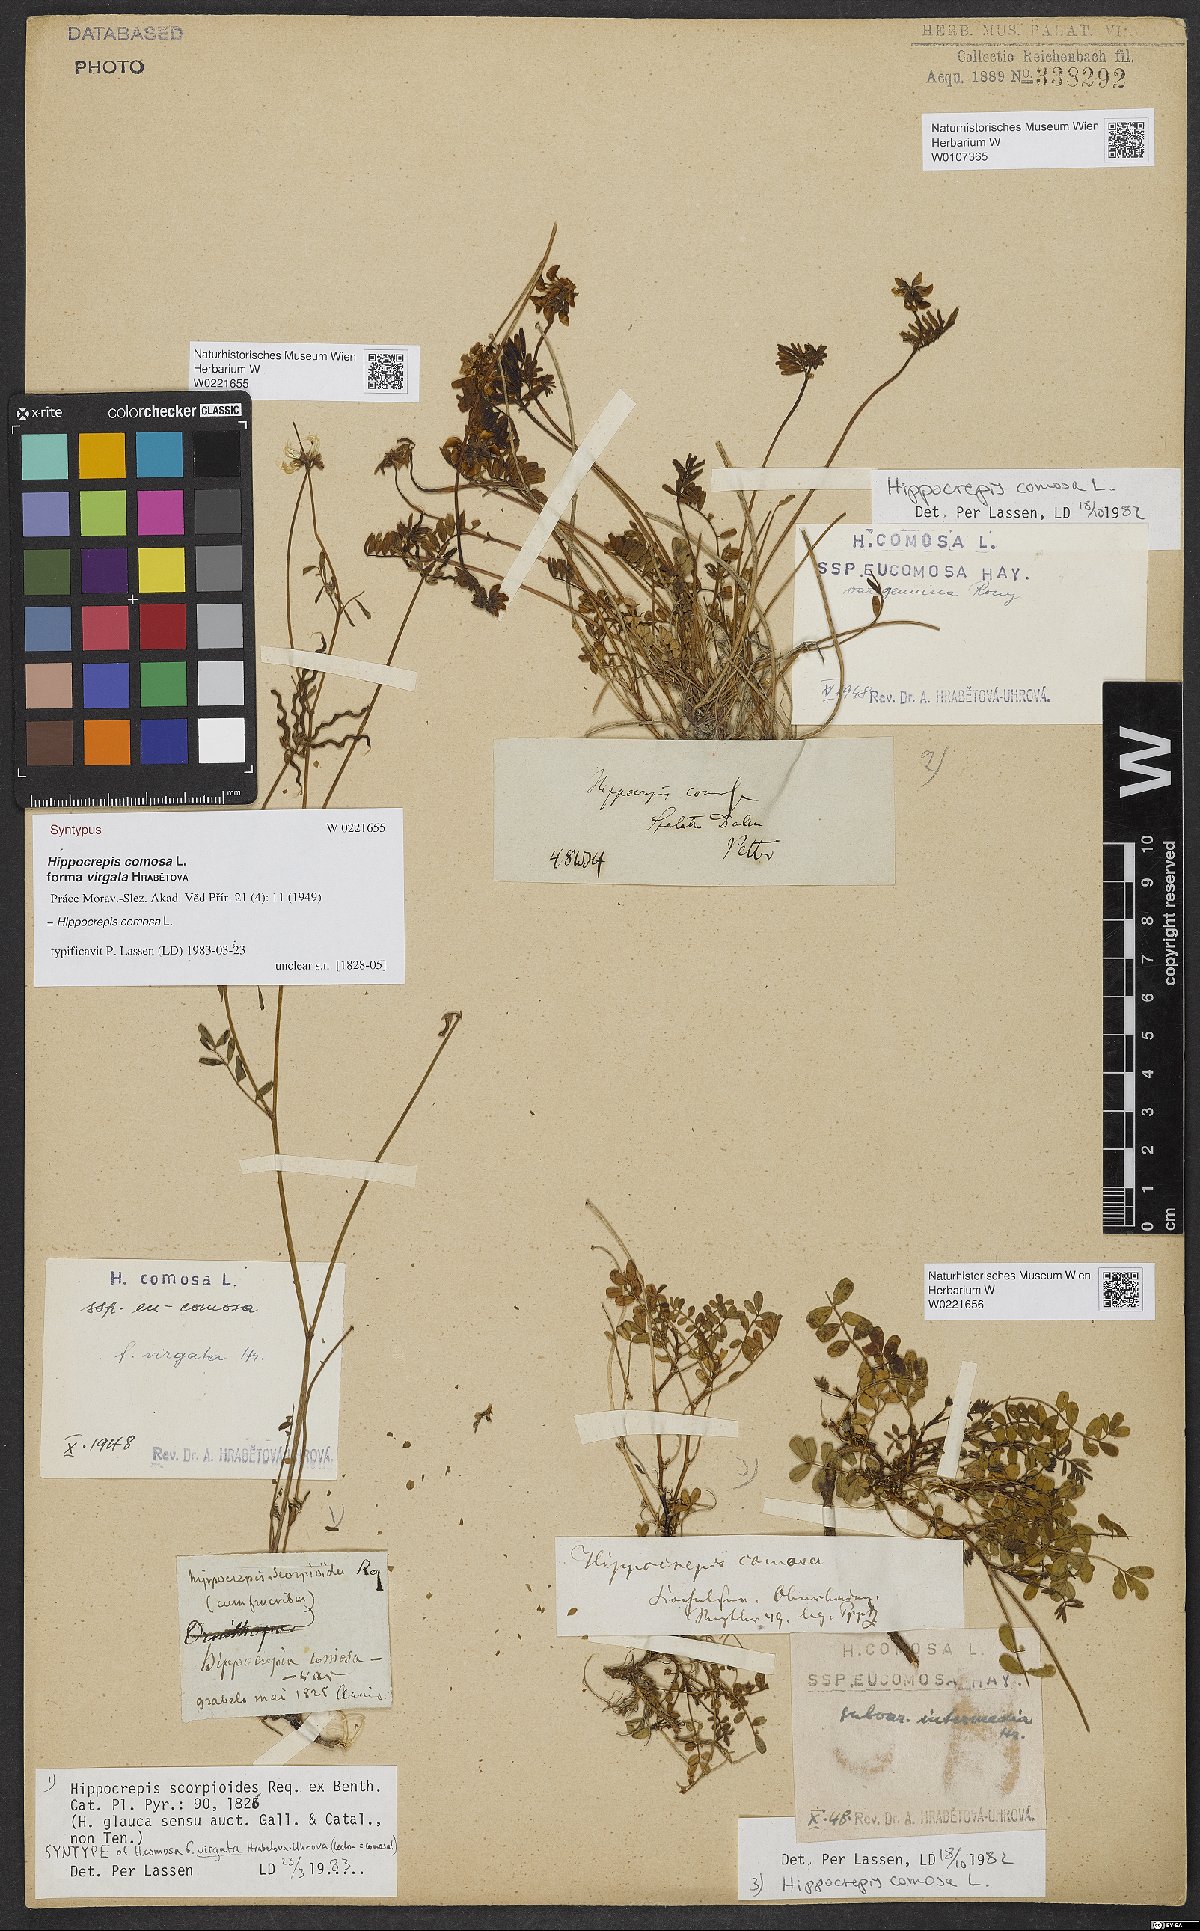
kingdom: Plantae
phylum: Tracheophyta
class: Magnoliopsida
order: Fabales
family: Fabaceae
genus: Hippocrepis
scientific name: Hippocrepis comosa
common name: Horseshoe vetch
